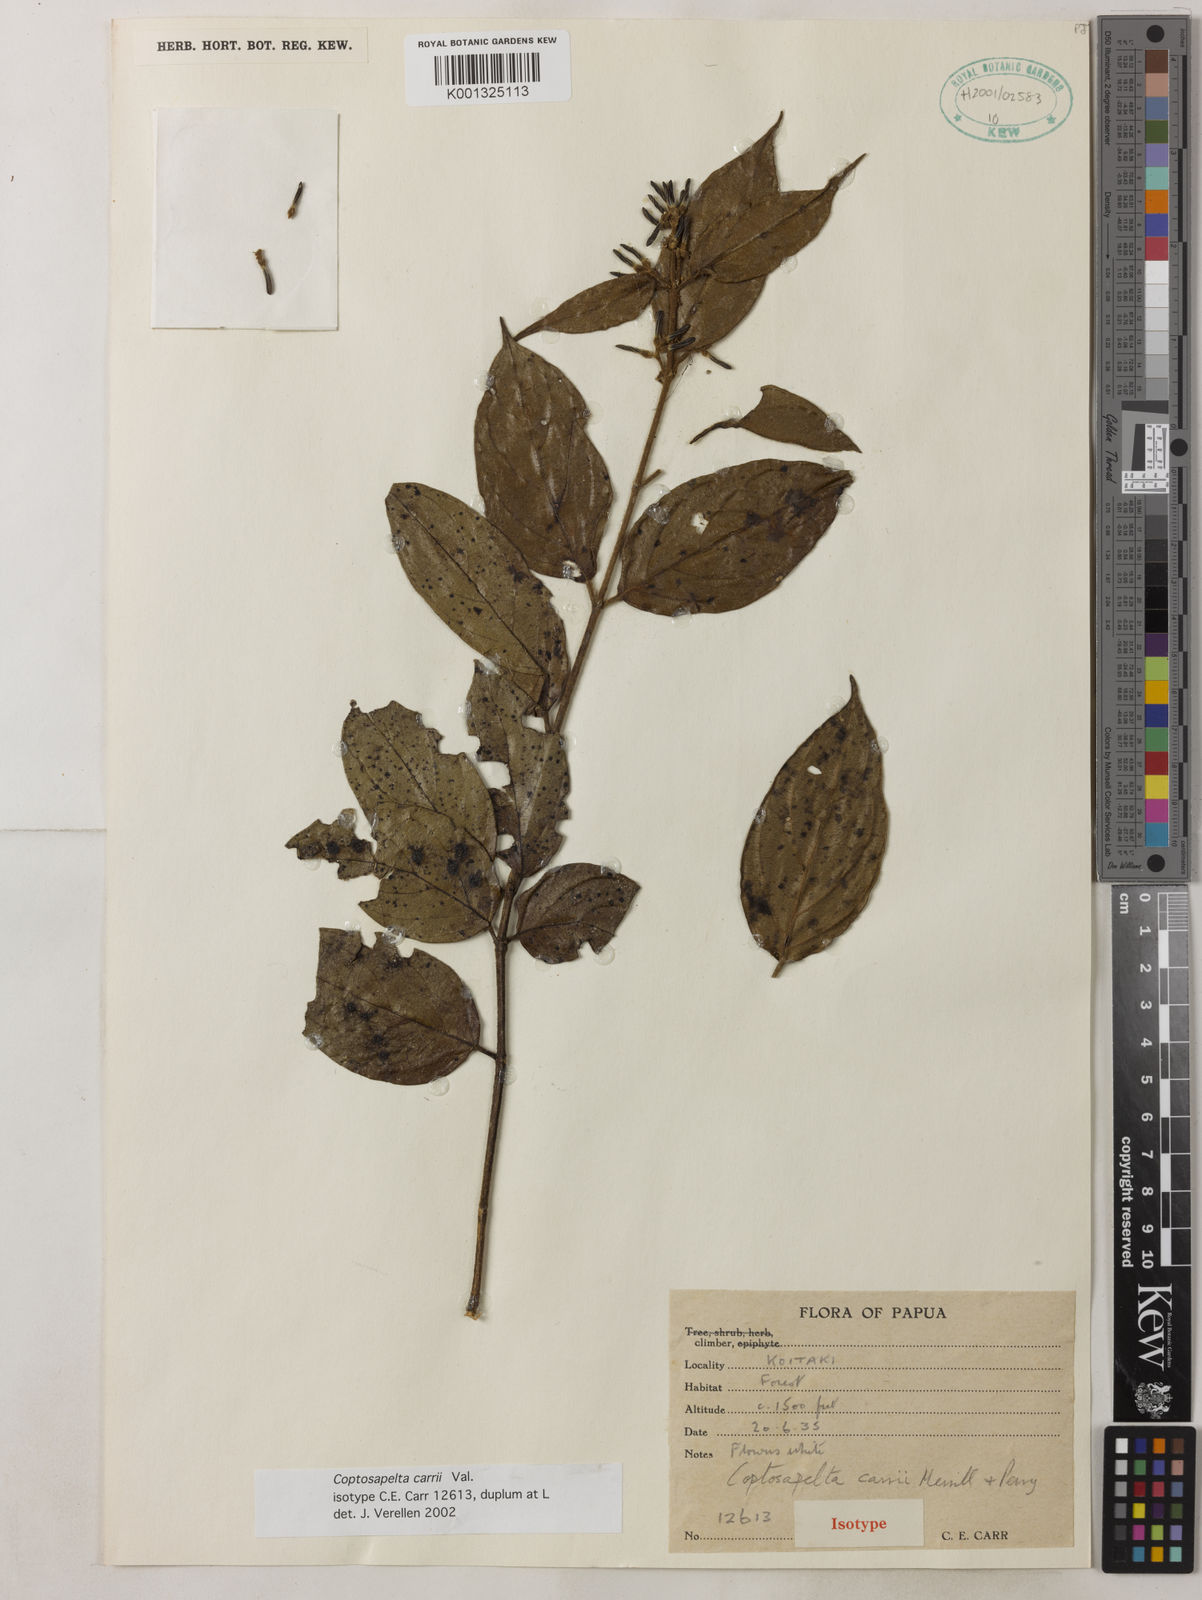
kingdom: Plantae
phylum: Tracheophyta
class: Magnoliopsida
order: Gentianales
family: Rubiaceae
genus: Coptosapelta
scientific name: Coptosapelta carrii
